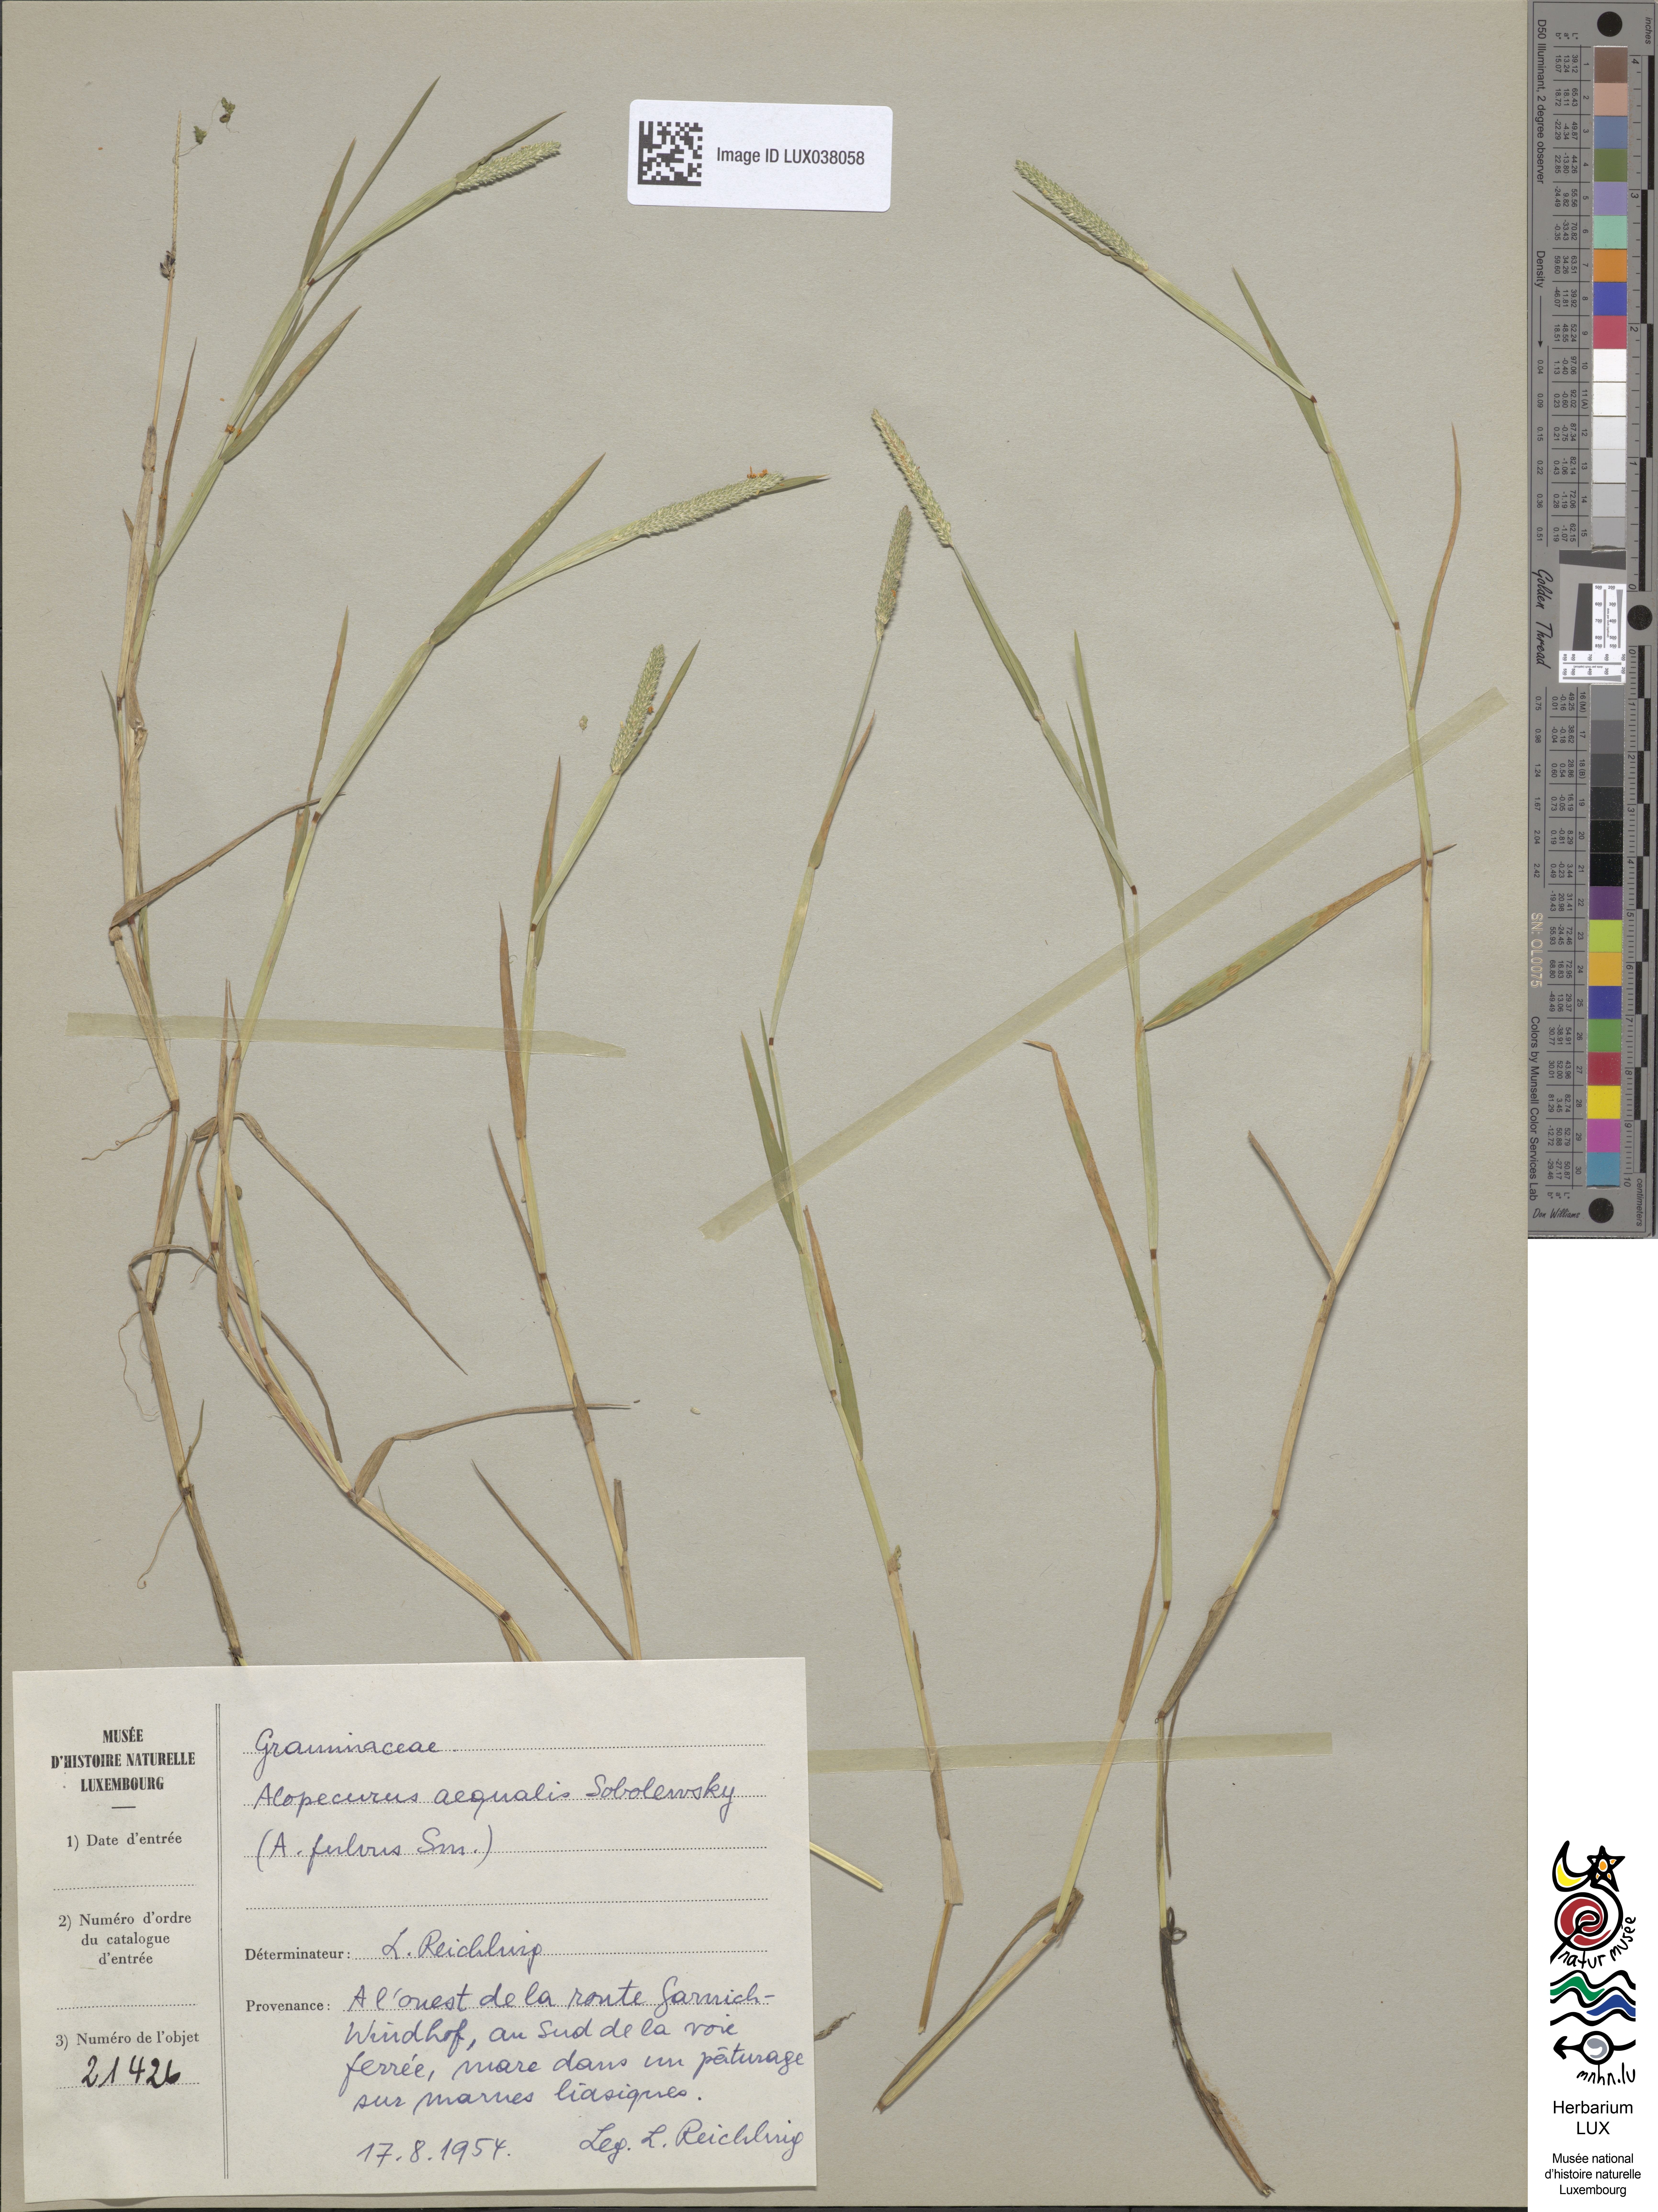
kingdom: Plantae
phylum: Tracheophyta
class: Liliopsida
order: Poales
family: Poaceae
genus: Alopecurus
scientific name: Alopecurus aequalis
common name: Orange foxtail
